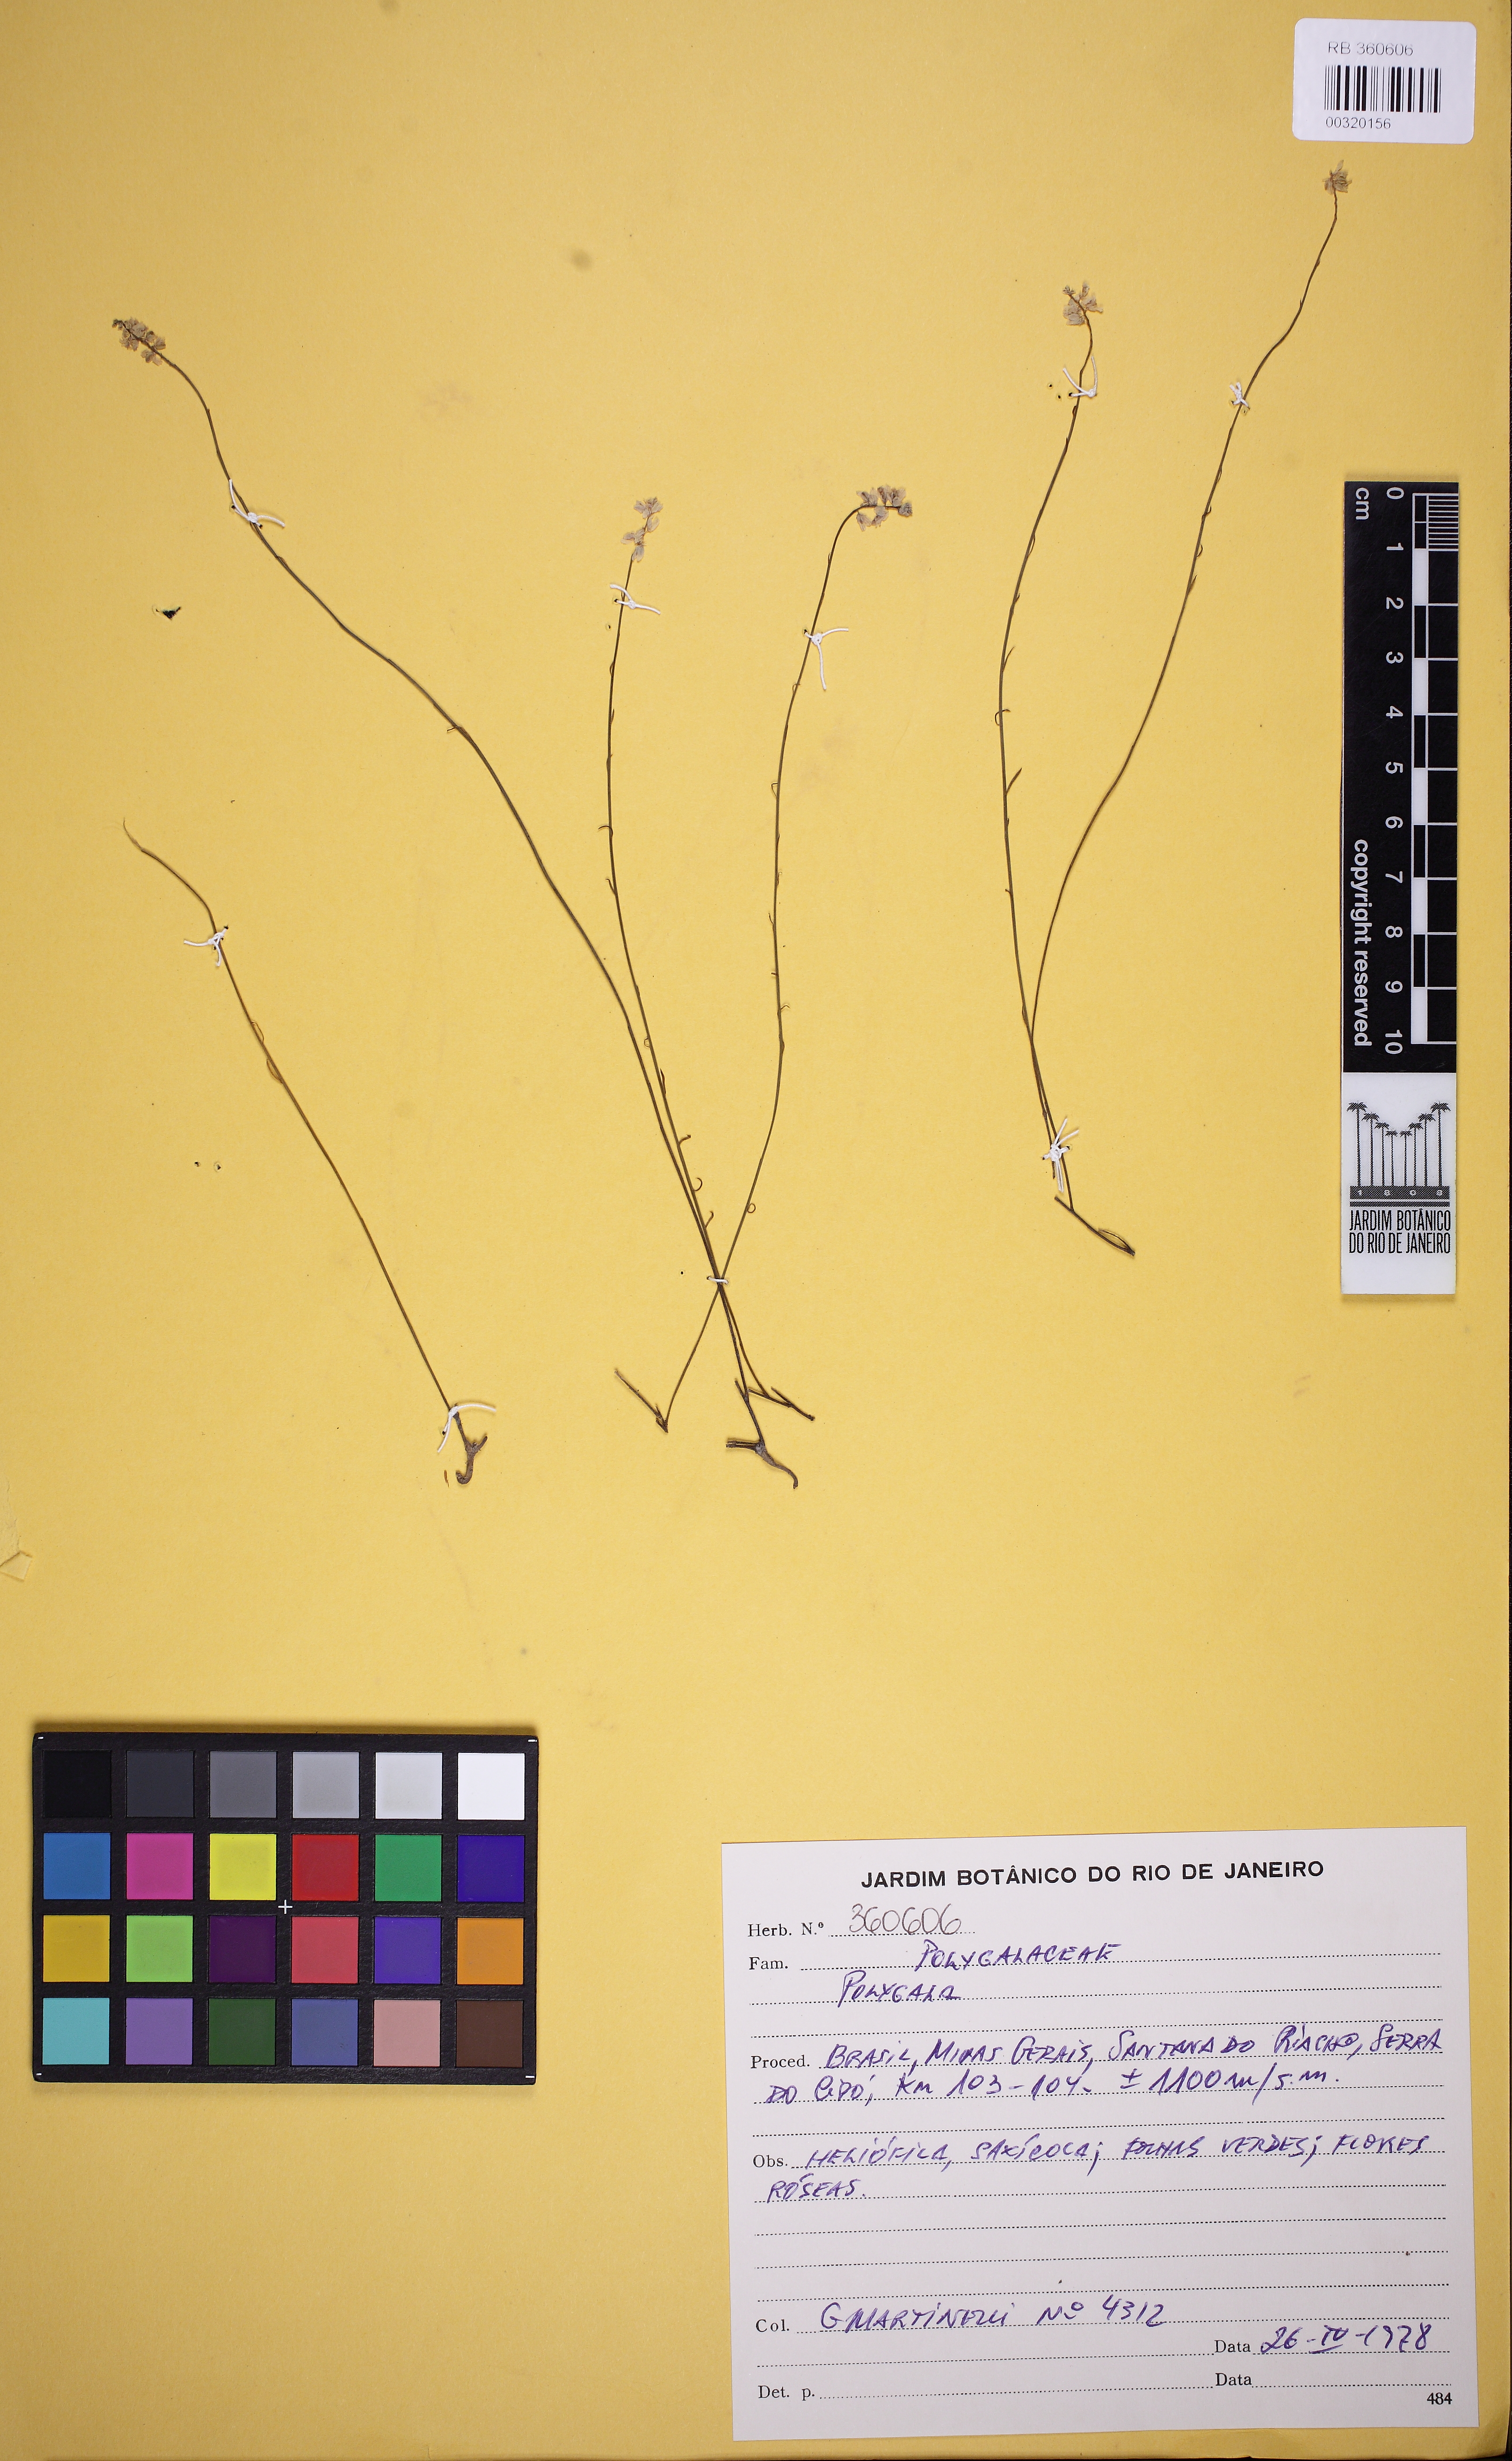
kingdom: Plantae
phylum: Tracheophyta
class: Magnoliopsida
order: Fabales
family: Polygalaceae
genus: Polygala
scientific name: Polygala apparicioi
